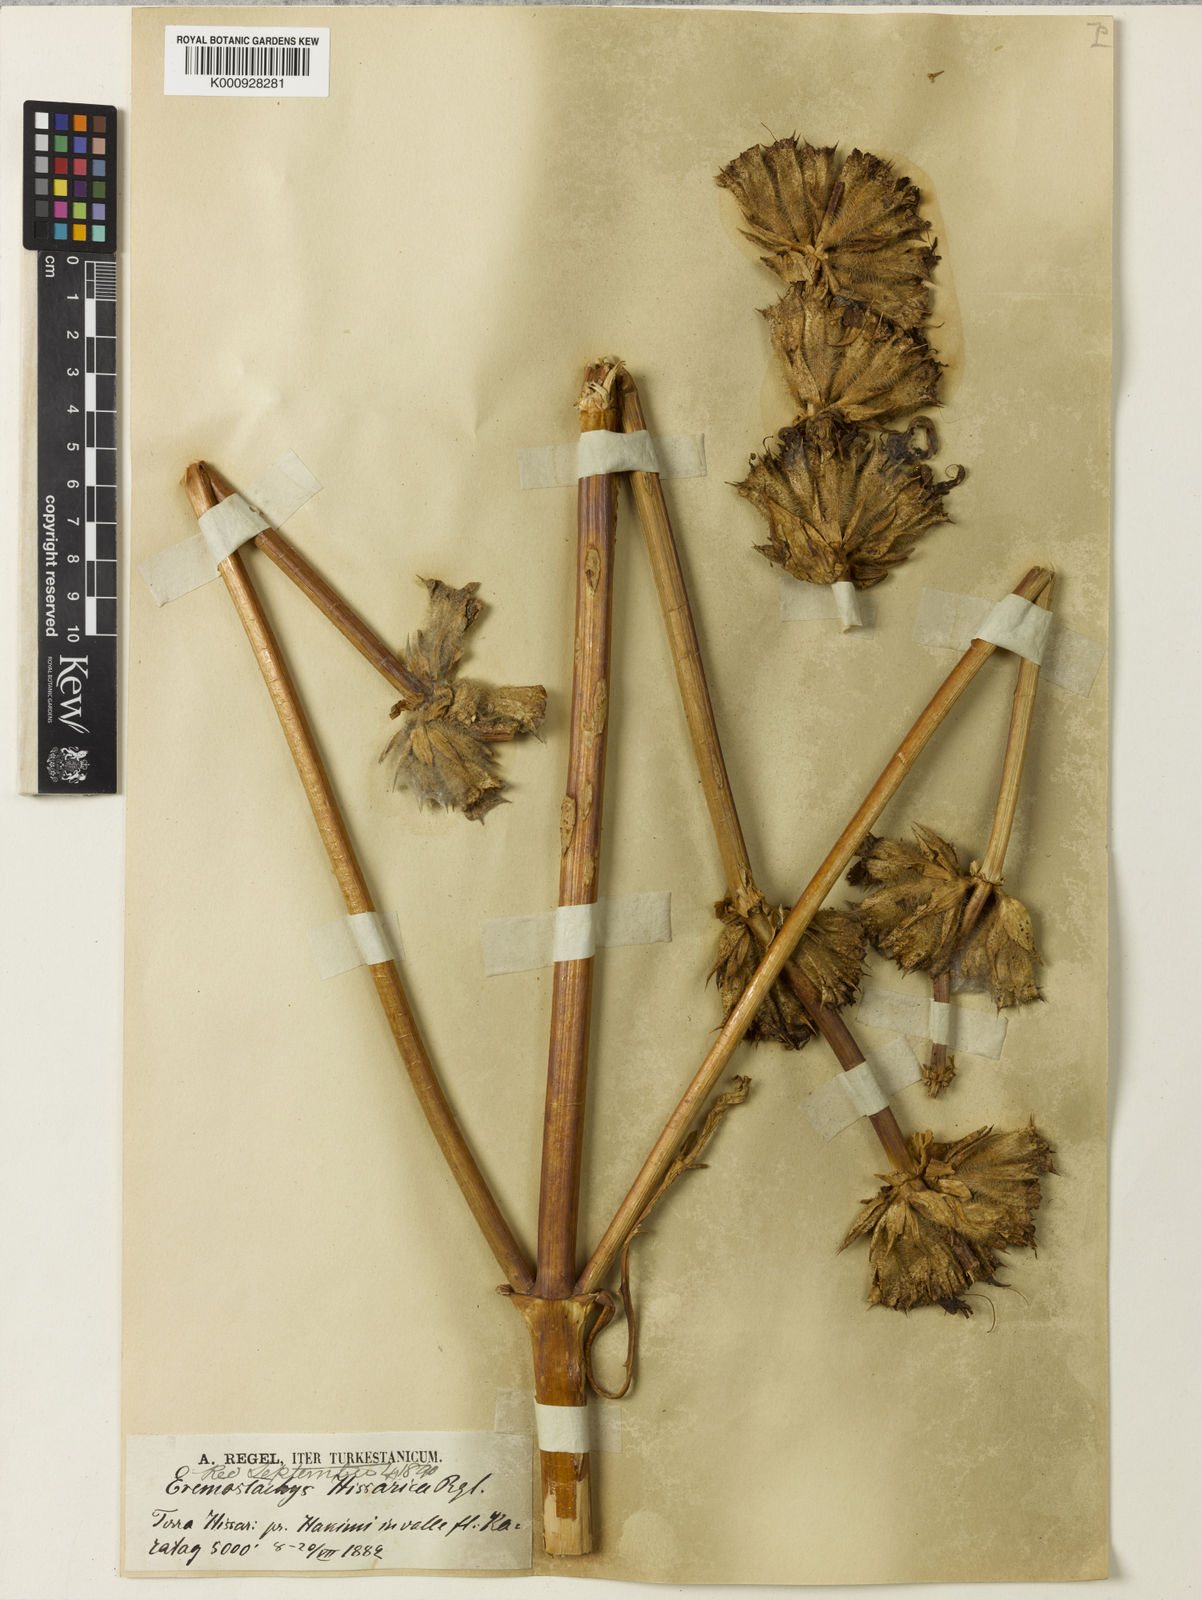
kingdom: Plantae
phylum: Tracheophyta
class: Magnoliopsida
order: Lamiales
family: Lamiaceae
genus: Phlomoides
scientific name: Phlomoides hissarica
